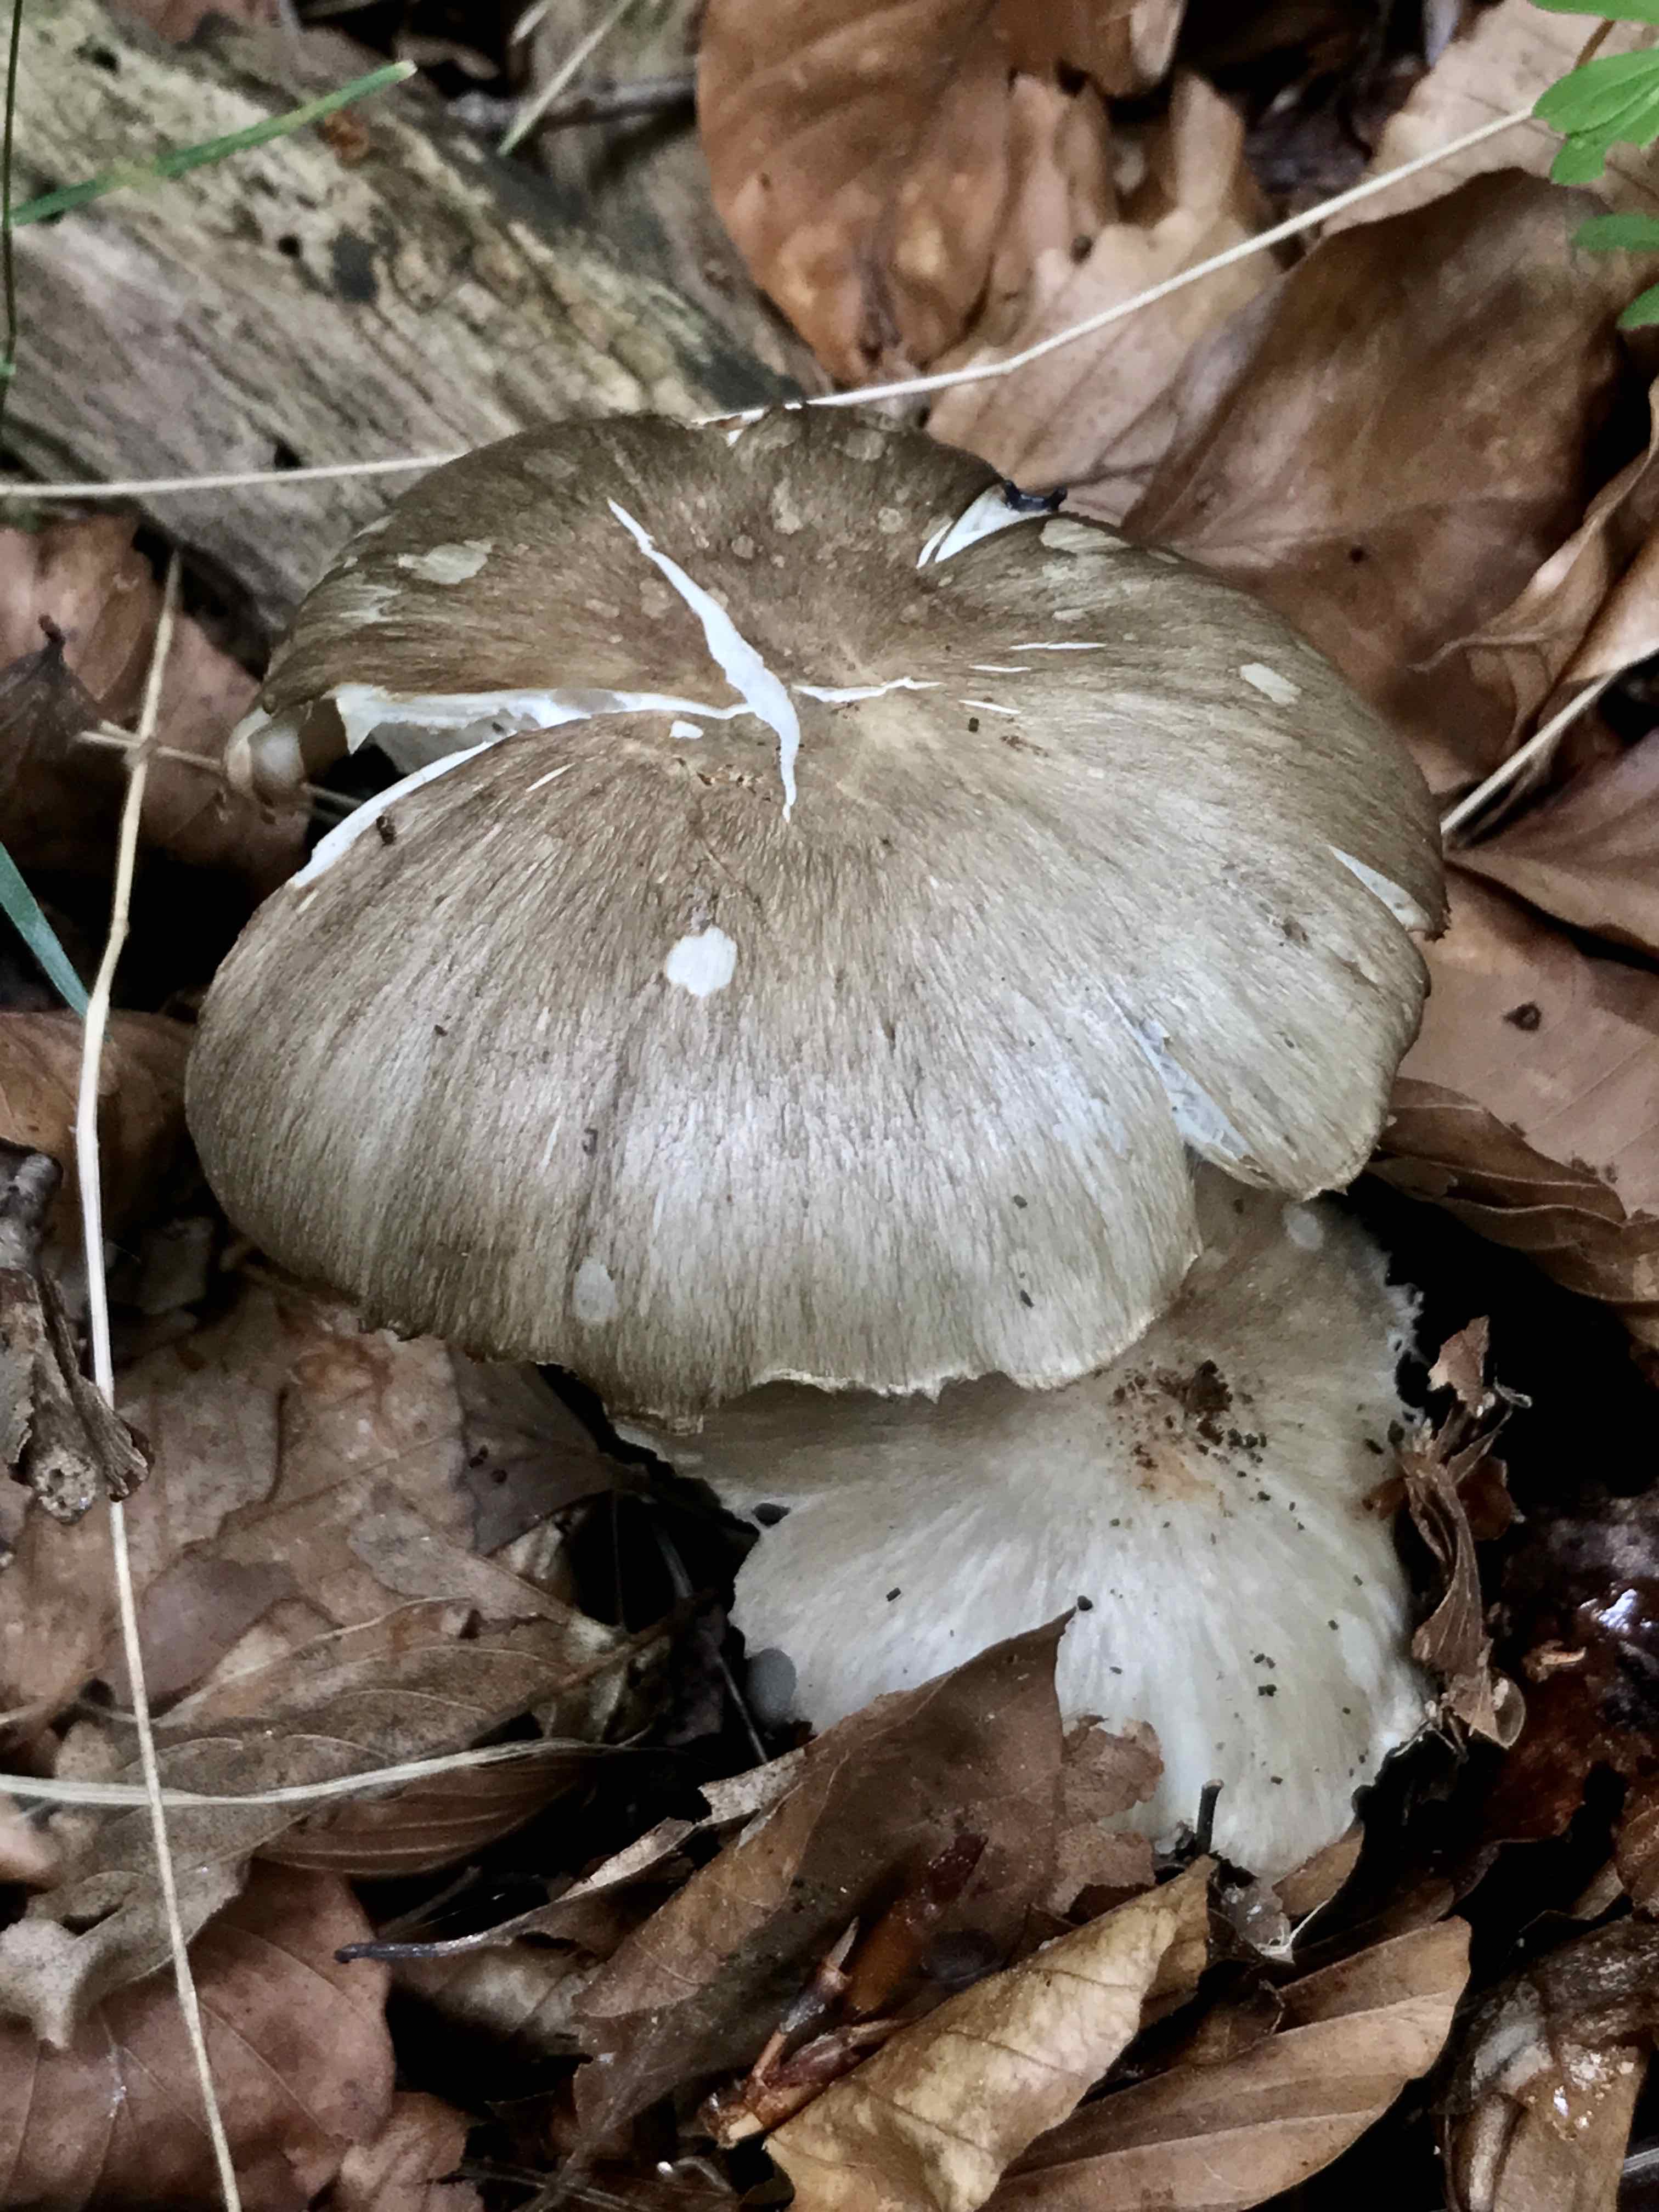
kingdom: Fungi
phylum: Basidiomycota
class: Agaricomycetes
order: Agaricales
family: Tricholomataceae
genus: Megacollybia
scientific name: Megacollybia platyphylla
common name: bredbladet væbnerhat
